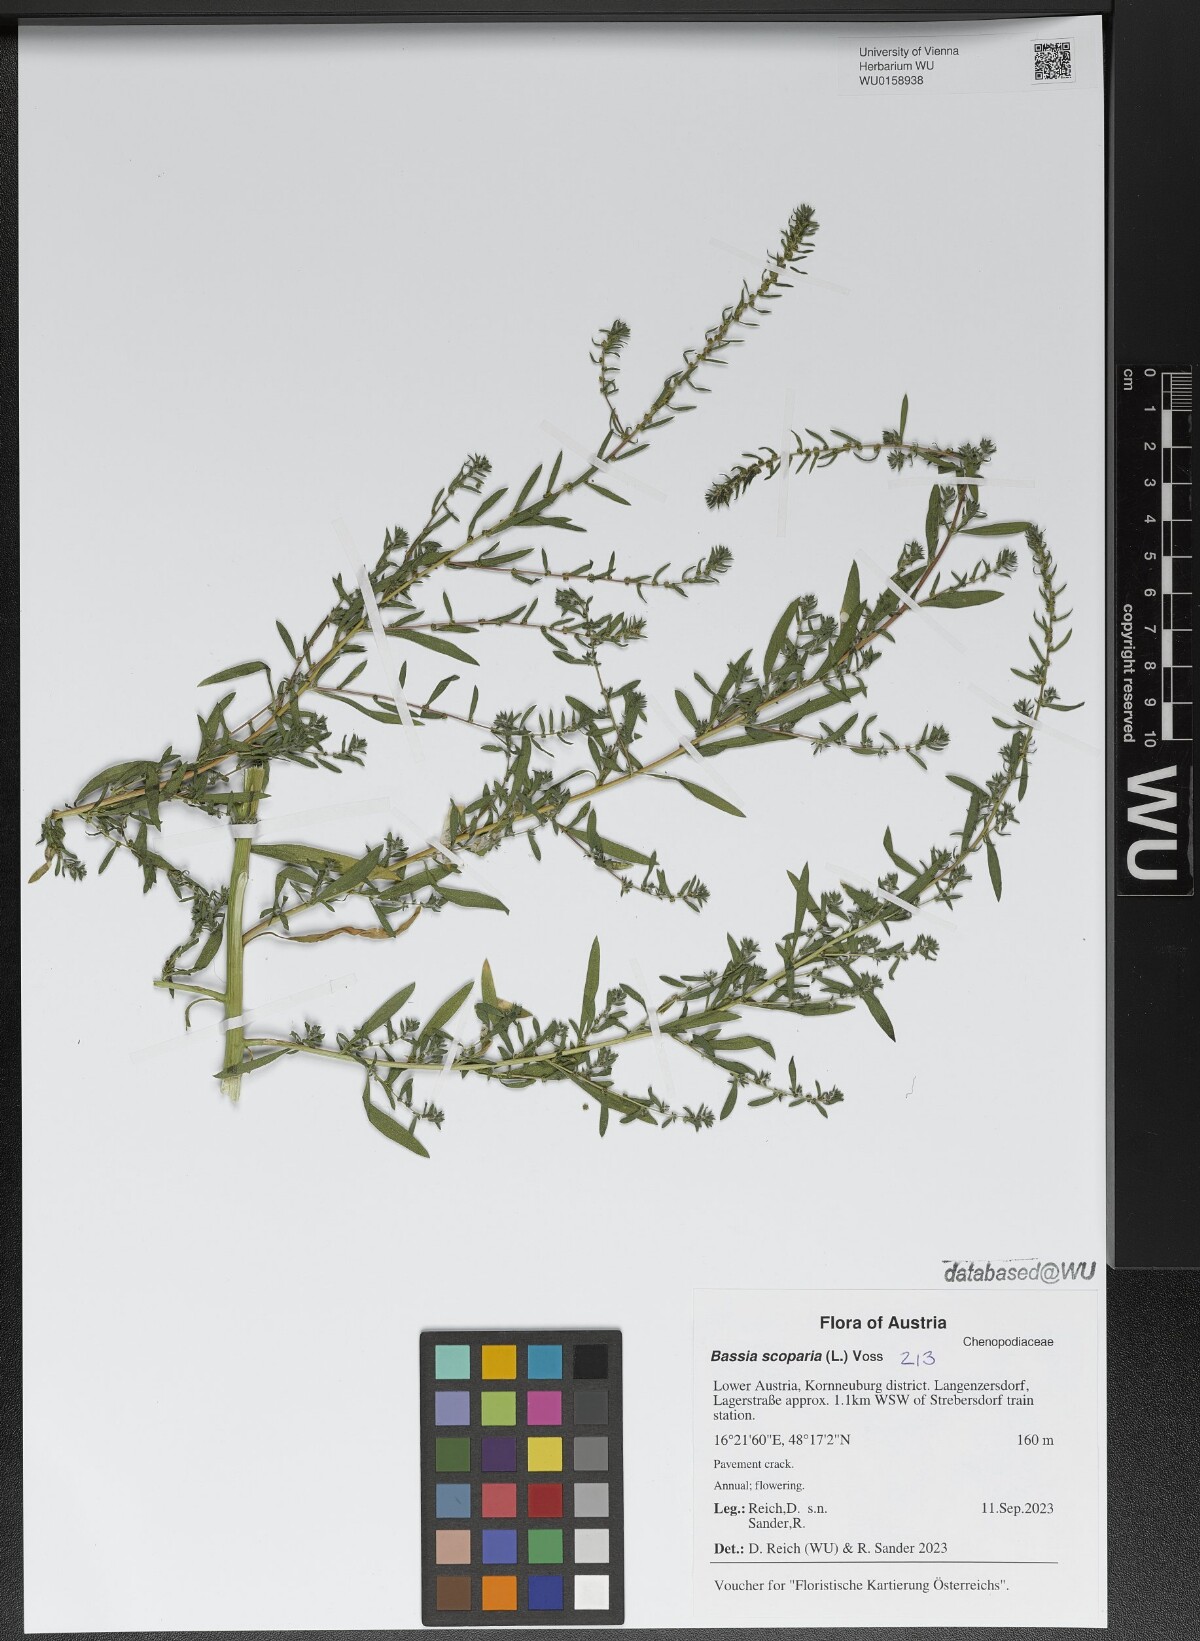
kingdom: Plantae
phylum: Tracheophyta
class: Magnoliopsida
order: Caryophyllales
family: Amaranthaceae
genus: Bassia
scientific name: Bassia scoparia
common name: Belvedere
